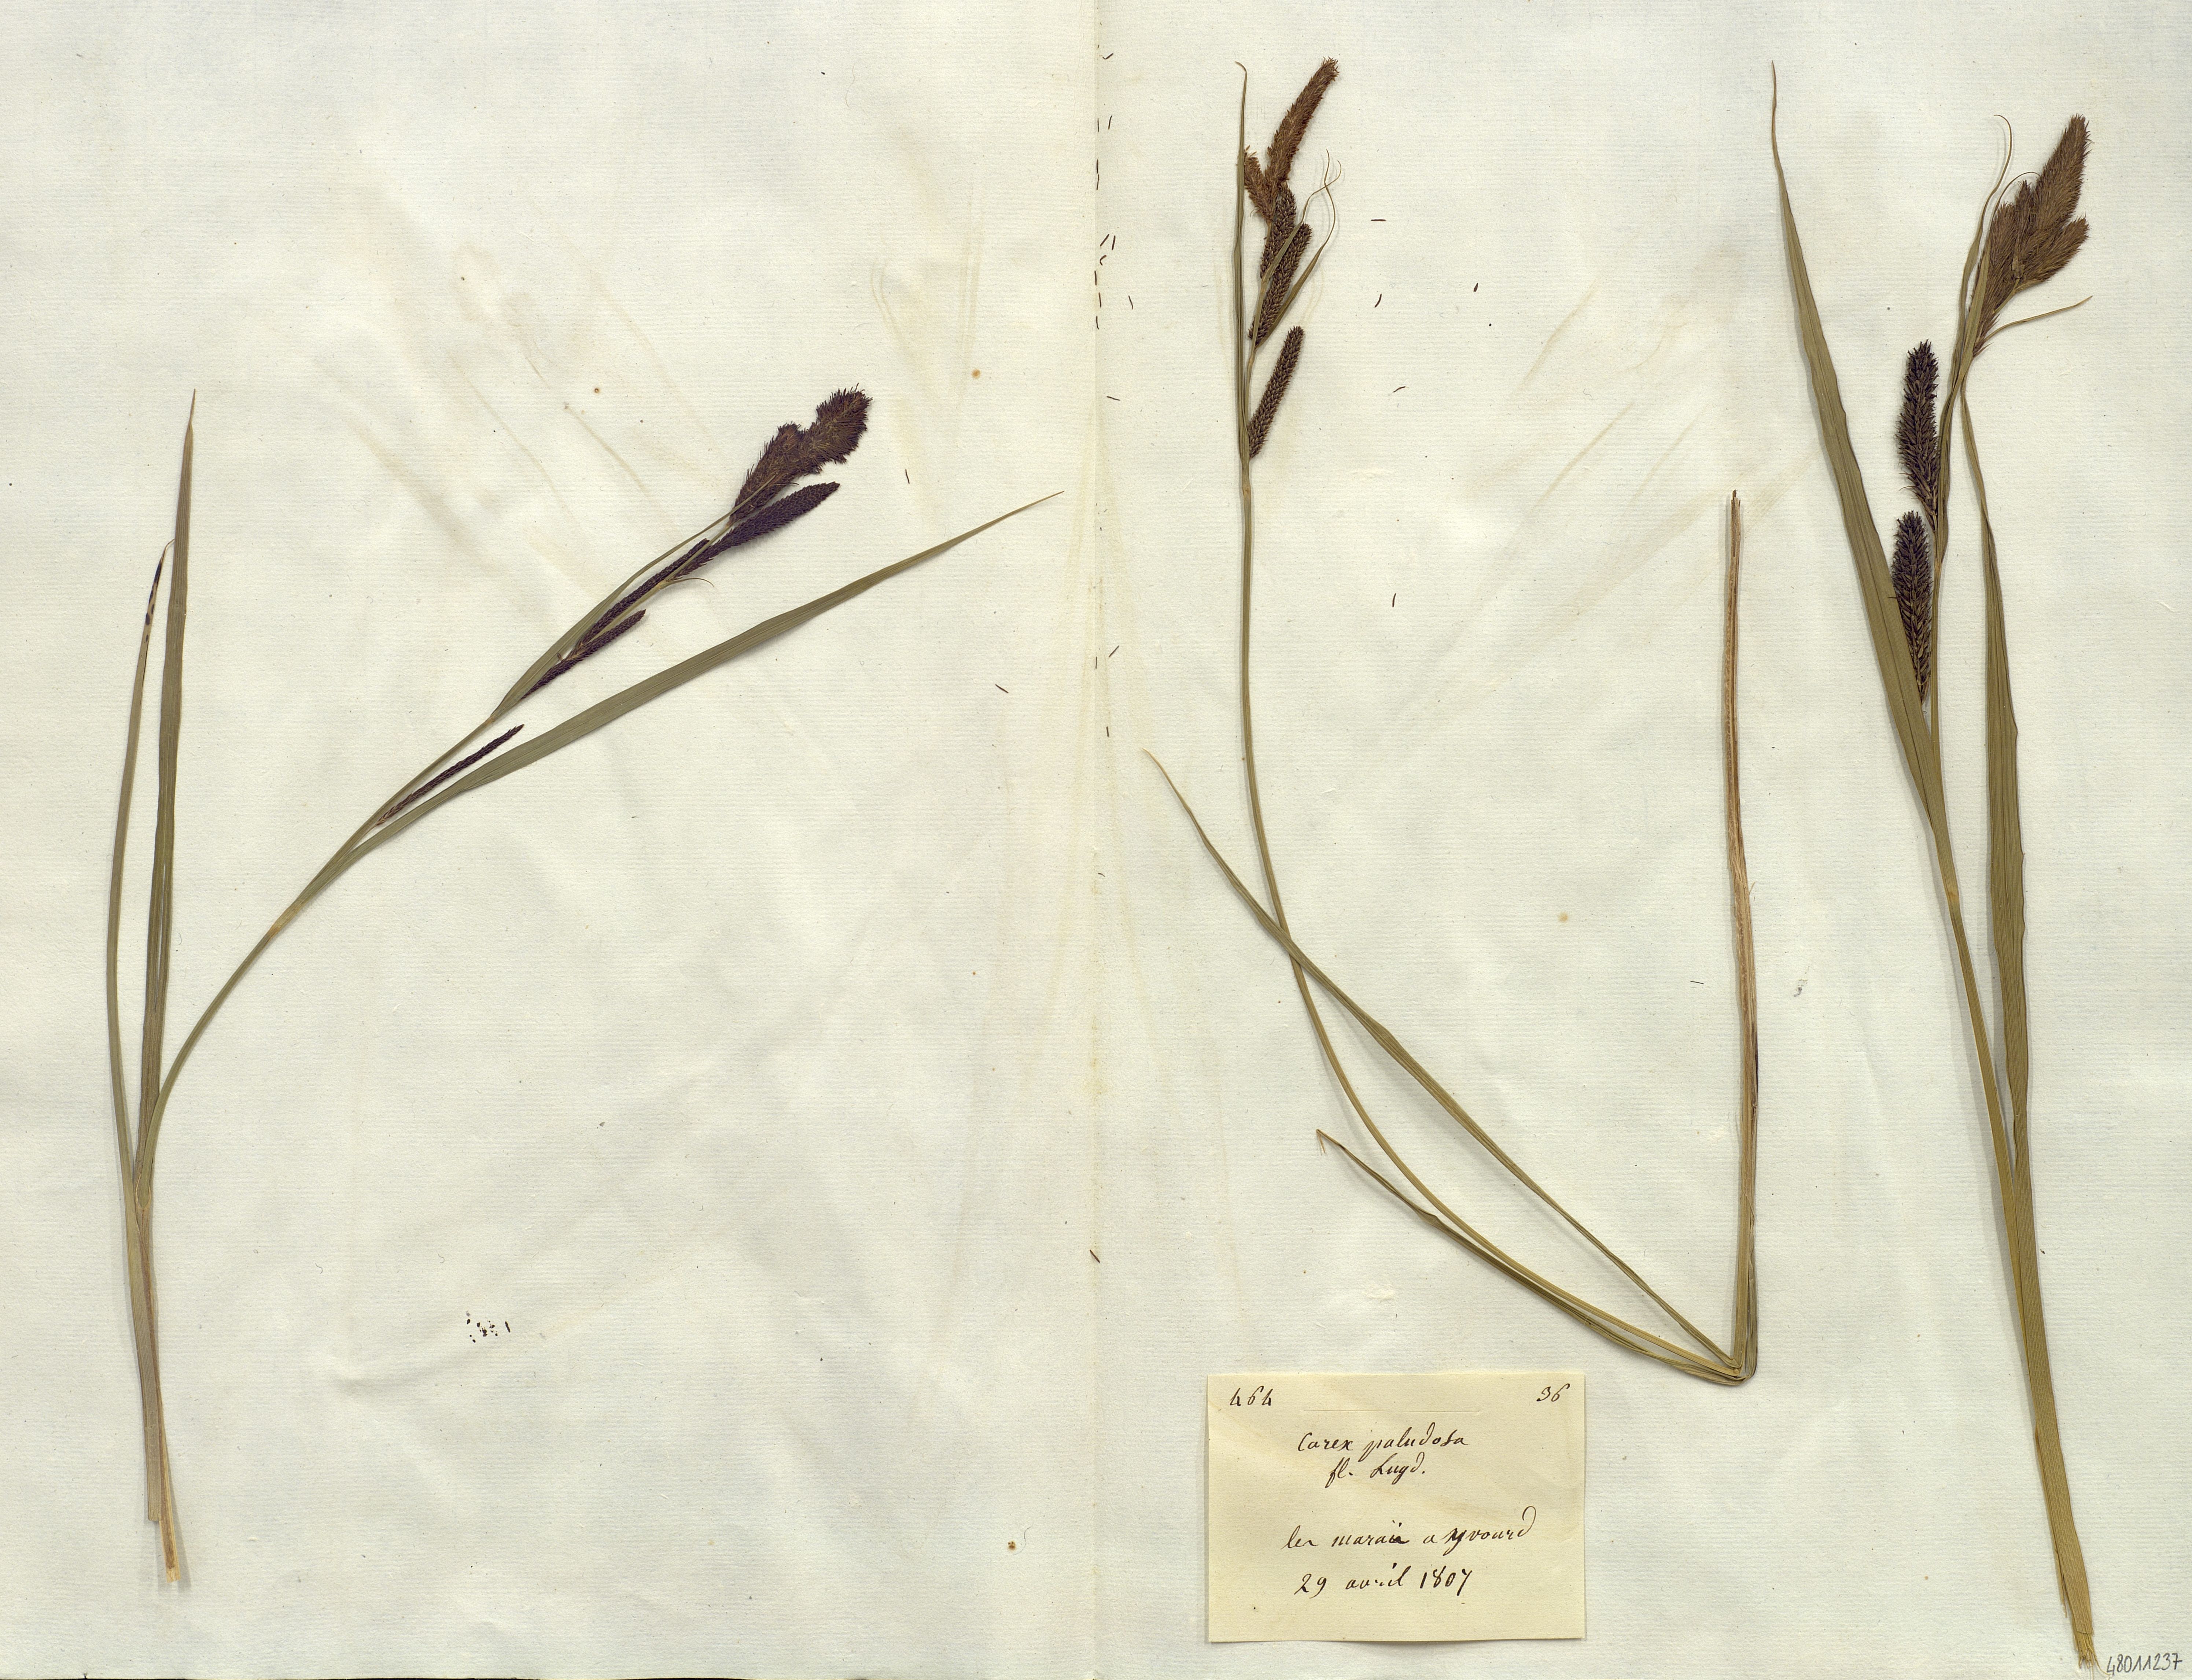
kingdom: Plantae
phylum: Tracheophyta
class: Liliopsida
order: Poales
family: Cyperaceae
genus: Carex
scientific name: Carex acutiformis
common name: Lesser pond-sedge
